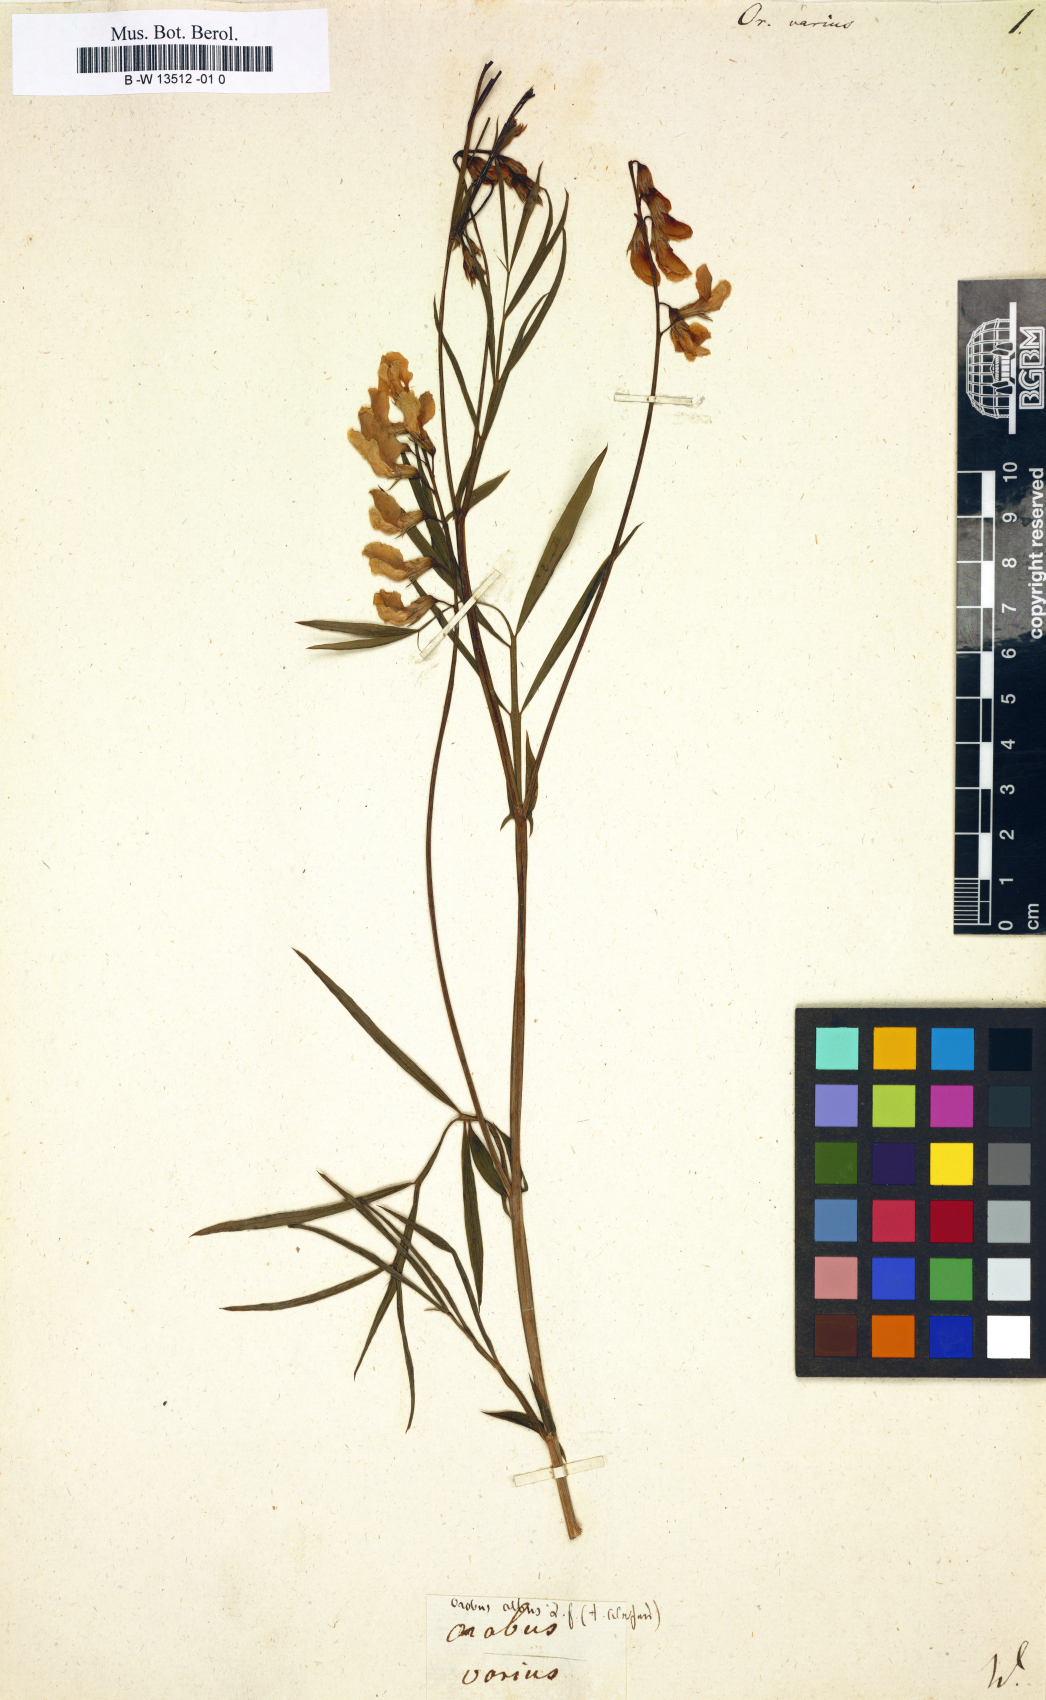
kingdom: Plantae
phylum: Tracheophyta
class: Magnoliopsida
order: Fabales
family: Fabaceae
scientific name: Fabaceae
